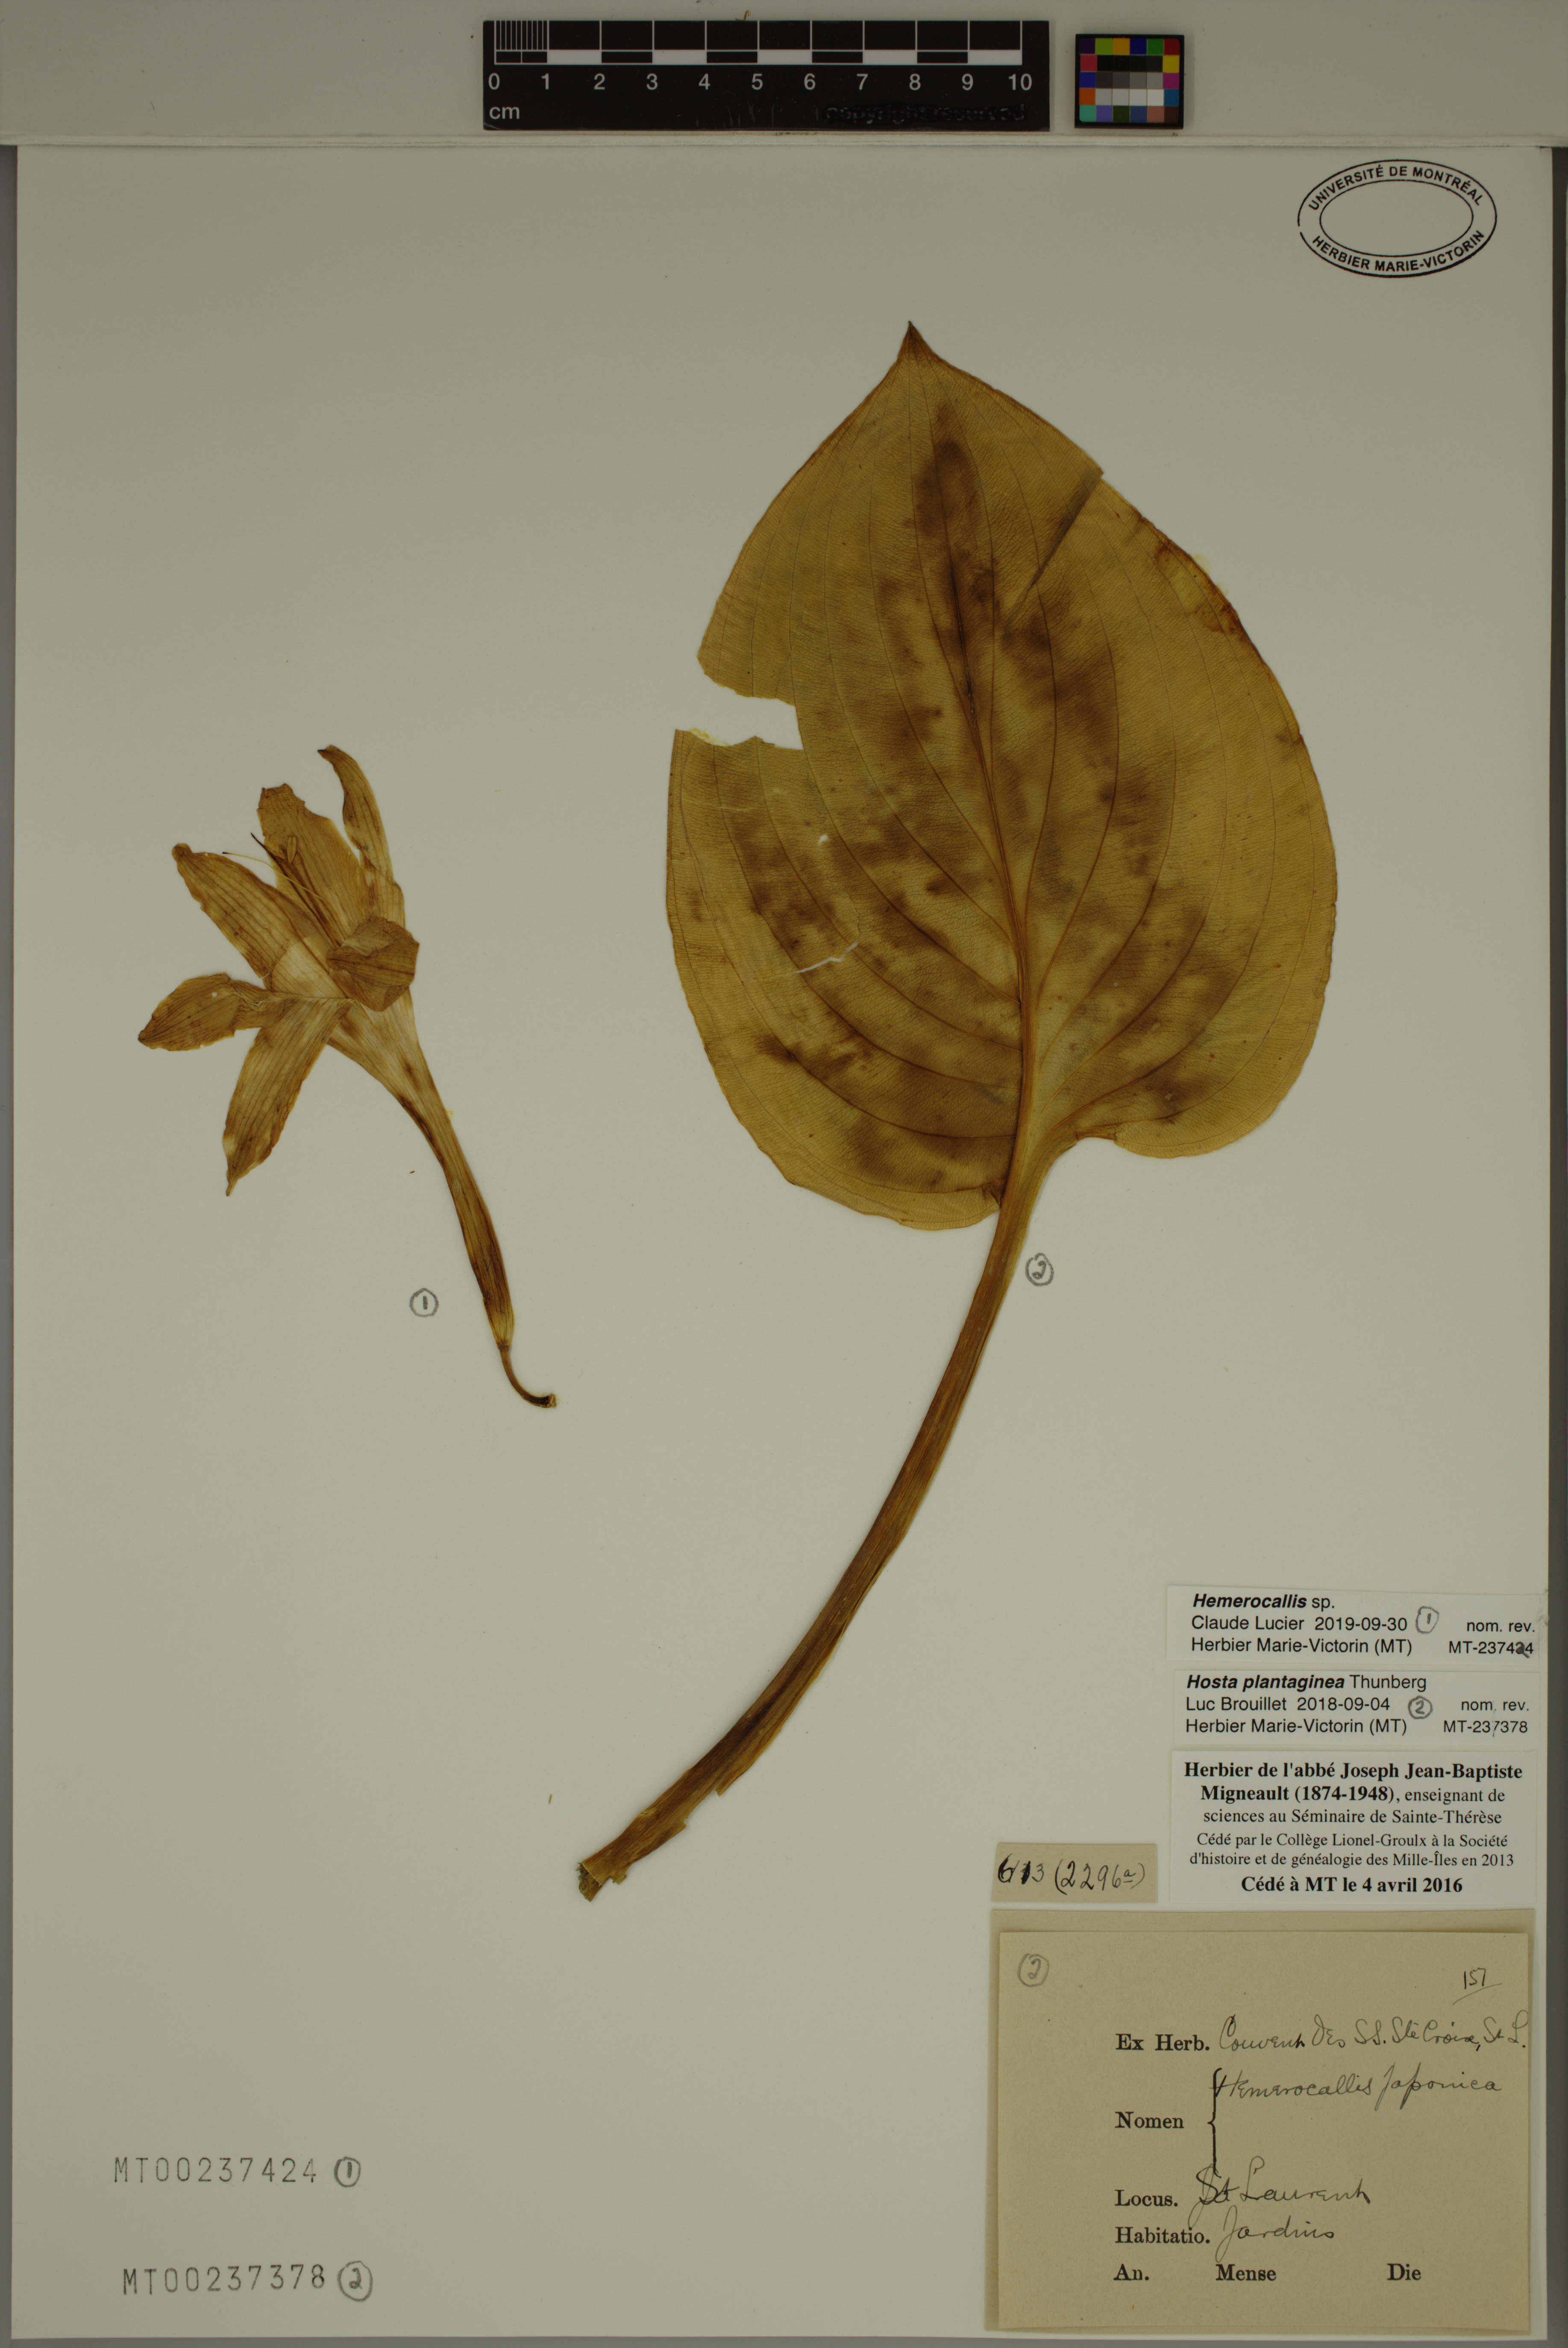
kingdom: Plantae
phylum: Tracheophyta
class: Liliopsida
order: Asparagales
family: Asphodelaceae
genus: Hemerocallis
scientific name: Hemerocallis
